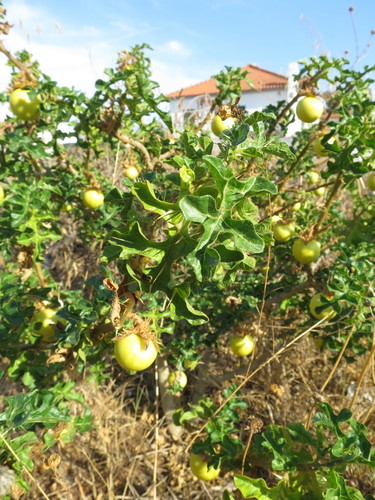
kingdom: Plantae
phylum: Tracheophyta
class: Magnoliopsida
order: Solanales
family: Solanaceae
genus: Solanum
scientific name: Solanum linnaeanum
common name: Nightshade
